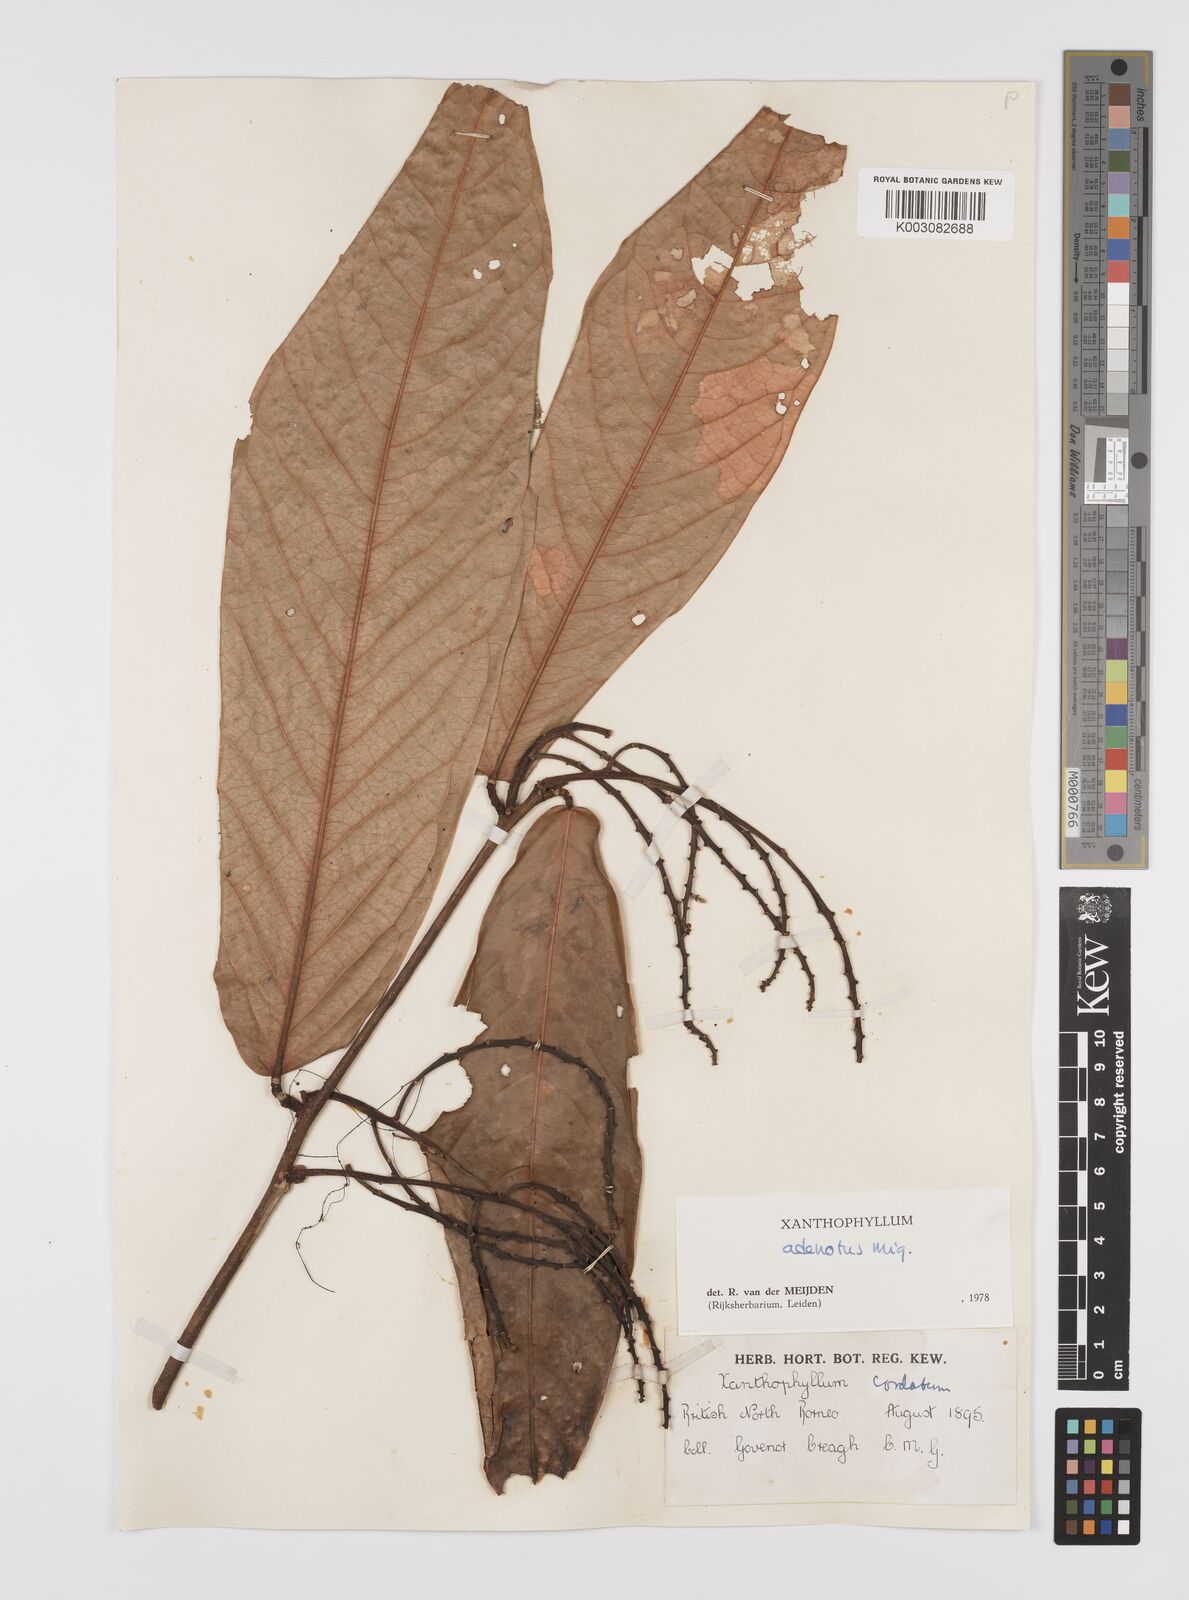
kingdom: Plantae
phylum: Tracheophyta
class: Magnoliopsida
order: Fabales
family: Polygalaceae
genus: Xanthophyllum
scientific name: Xanthophyllum adenotus
